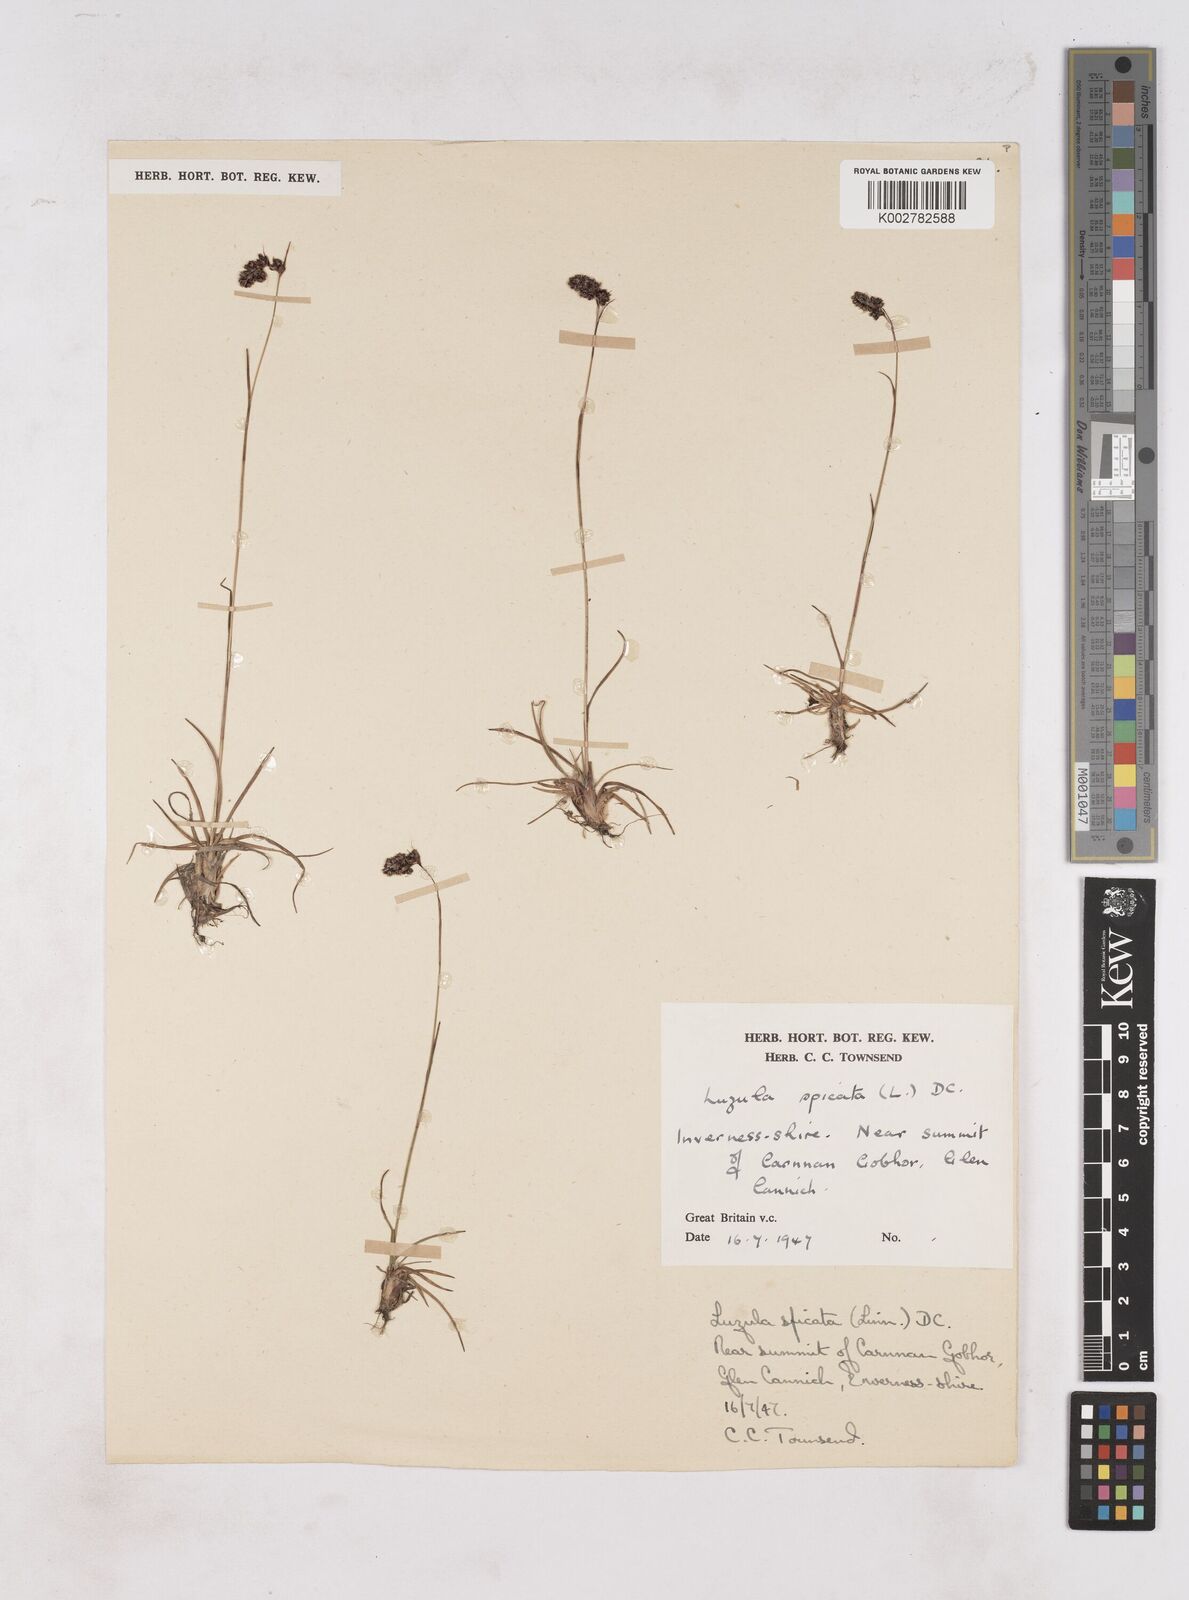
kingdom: Plantae
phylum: Tracheophyta
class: Liliopsida
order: Poales
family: Juncaceae
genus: Luzula
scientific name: Luzula spicata
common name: Spiked wood-rush
